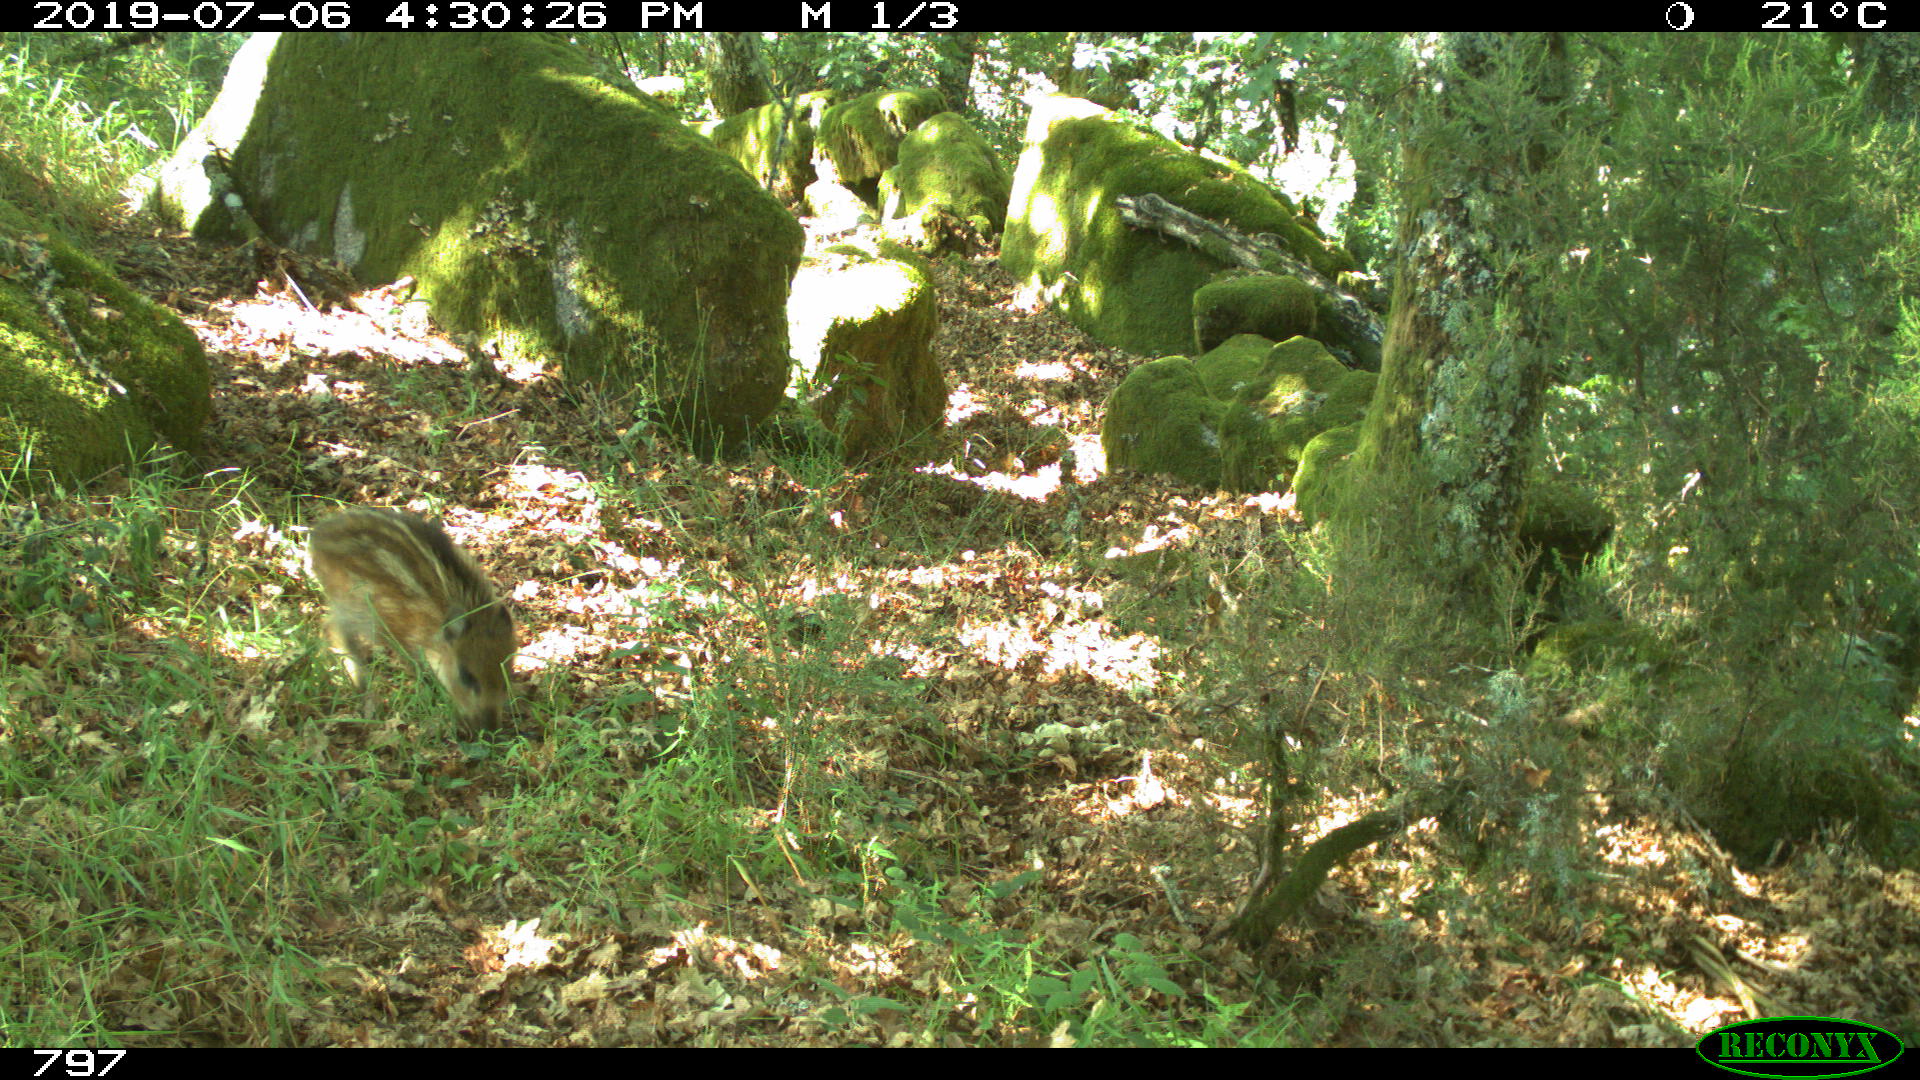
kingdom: Animalia
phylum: Chordata
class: Mammalia
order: Artiodactyla
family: Suidae
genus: Sus
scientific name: Sus scrofa
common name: Wild boar
